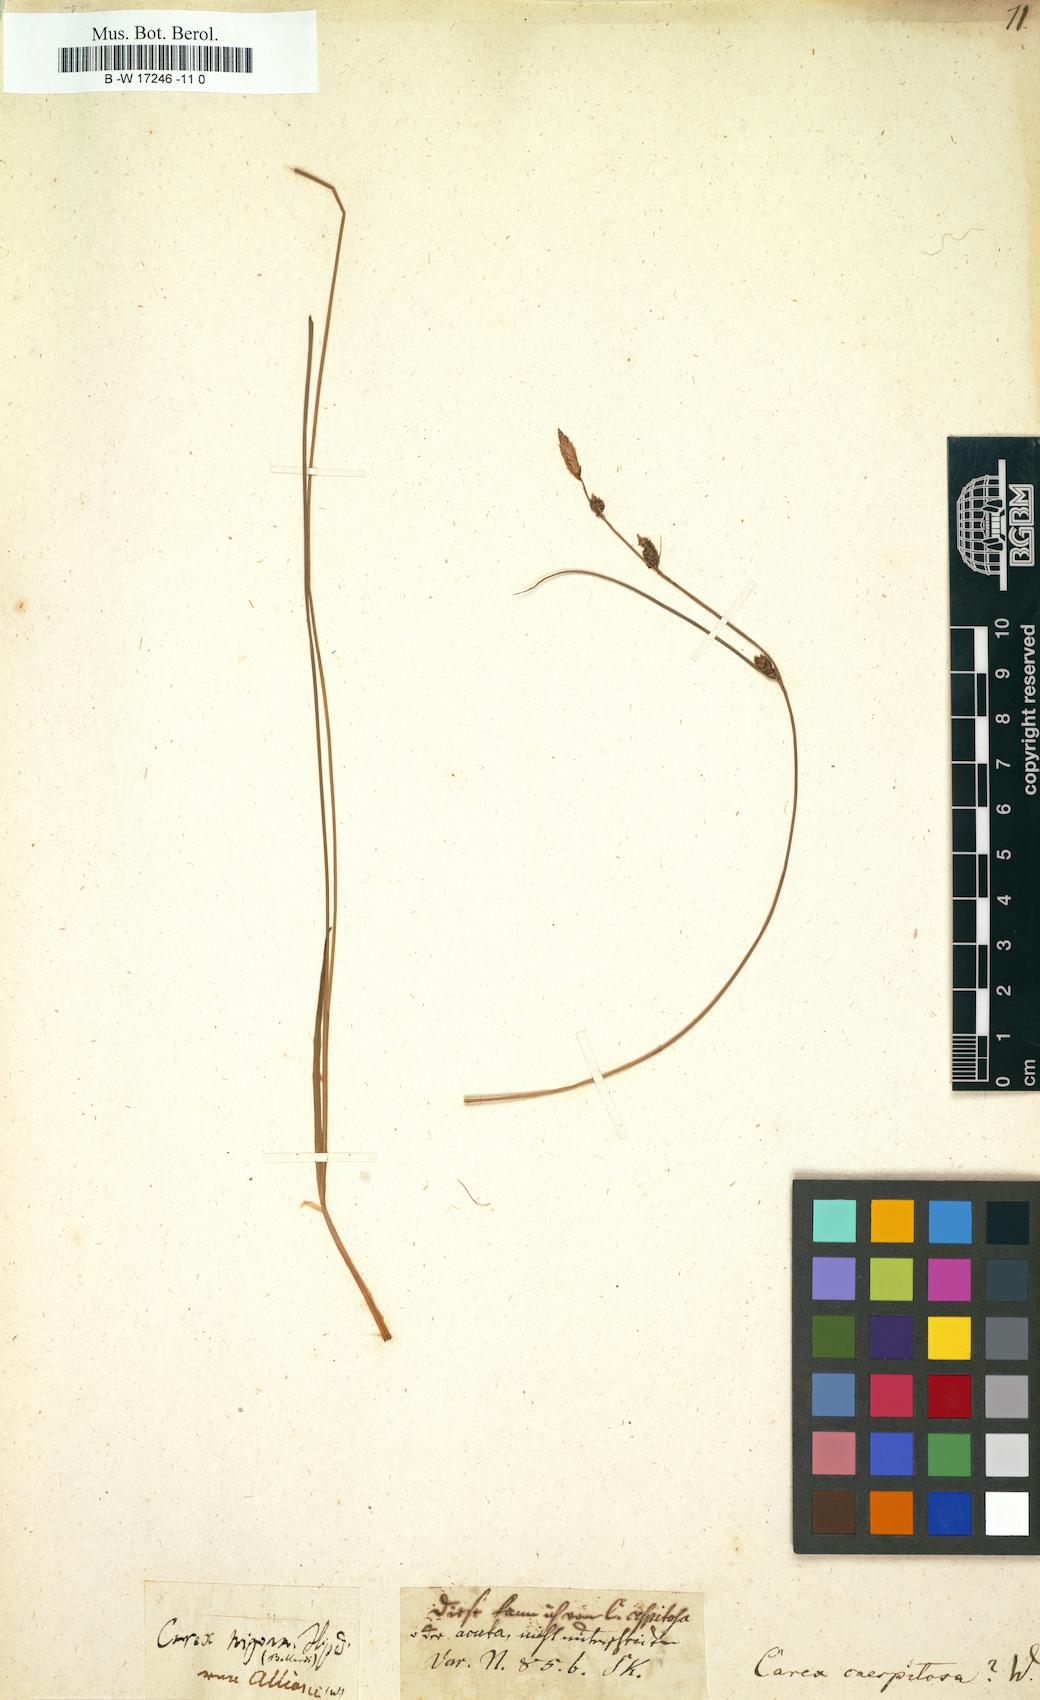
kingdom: Plantae
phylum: Tracheophyta
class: Liliopsida
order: Poales
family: Cyperaceae
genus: Carex
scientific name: Carex cespitosa
